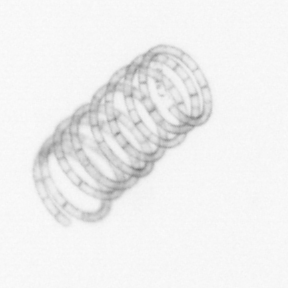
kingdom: Chromista
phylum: Ochrophyta
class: Bacillariophyceae
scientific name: Bacillariophyceae
